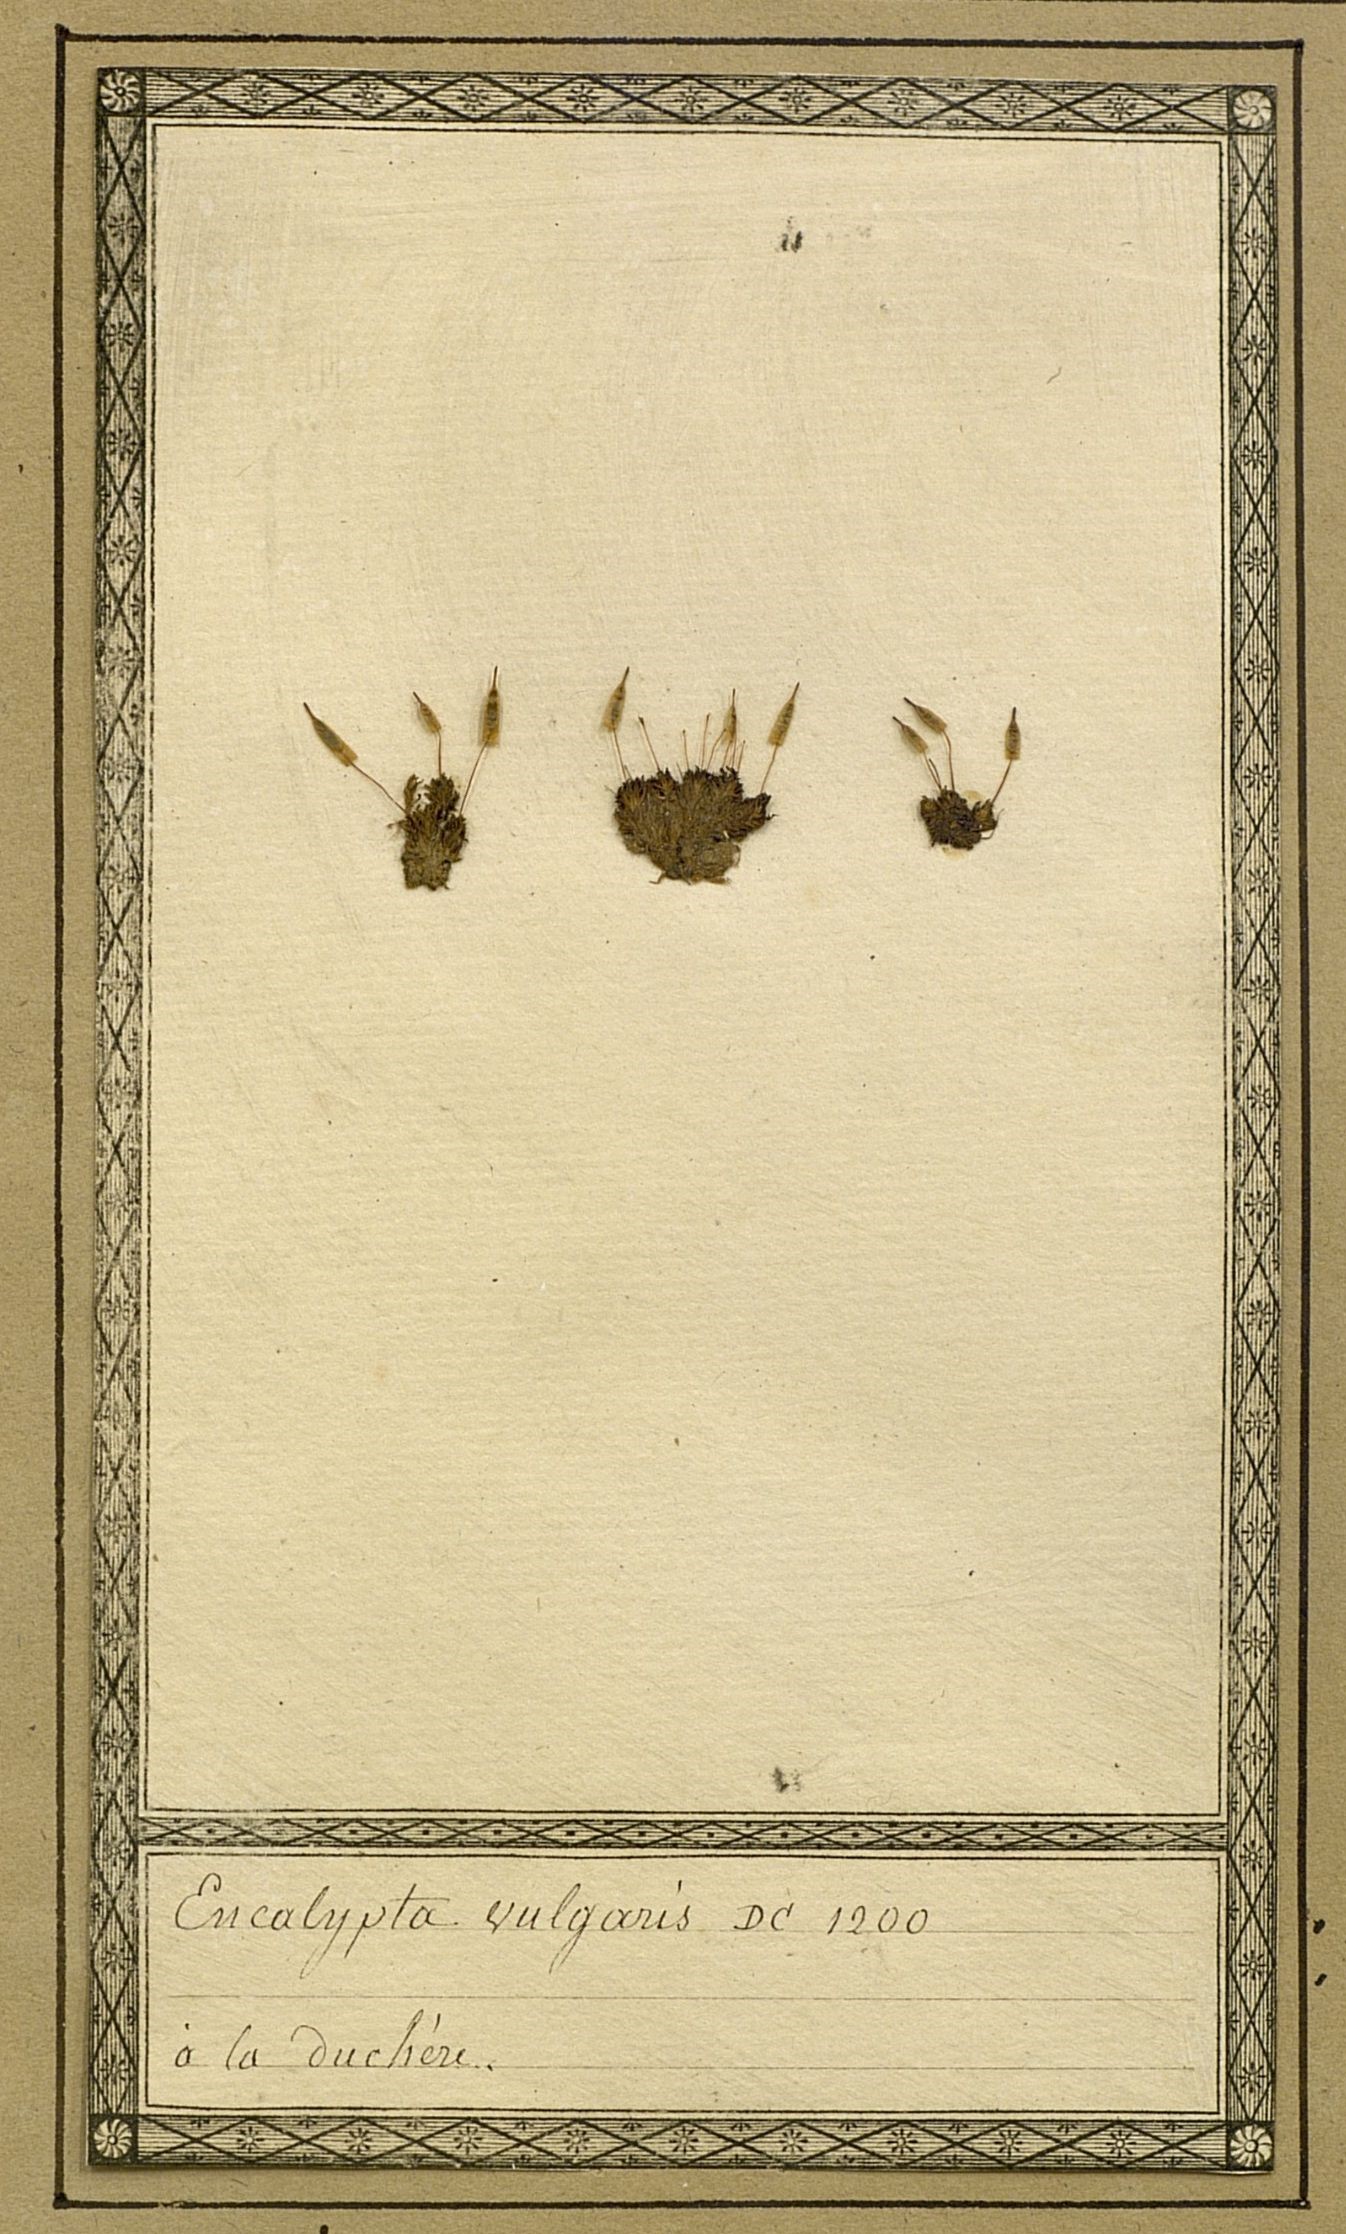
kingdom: Plantae
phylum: Bryophyta
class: Bryopsida
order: Encalyptales
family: Encalyptaceae
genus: Encalypta
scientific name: Encalypta vulgaris
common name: Common extinguisher-moss
